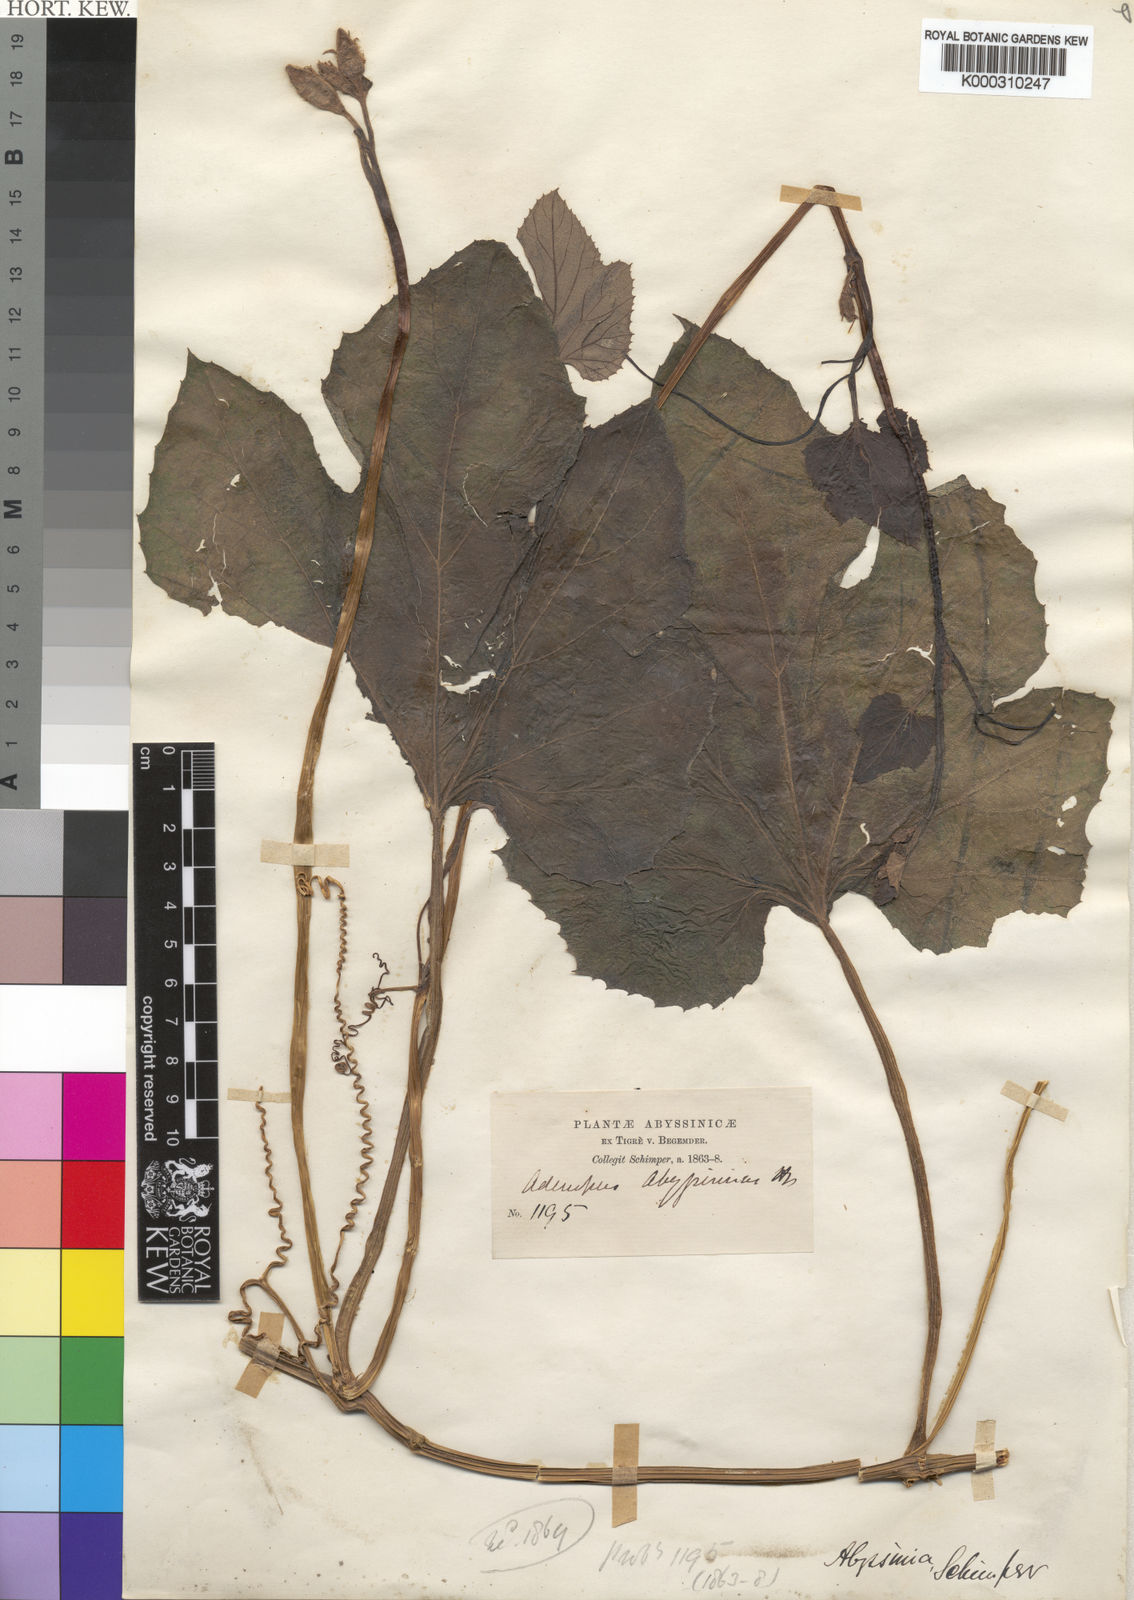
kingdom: Plantae
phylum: Tracheophyta
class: Magnoliopsida
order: Cucurbitales
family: Cucurbitaceae
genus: Lagenaria
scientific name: Lagenaria abyssinica
